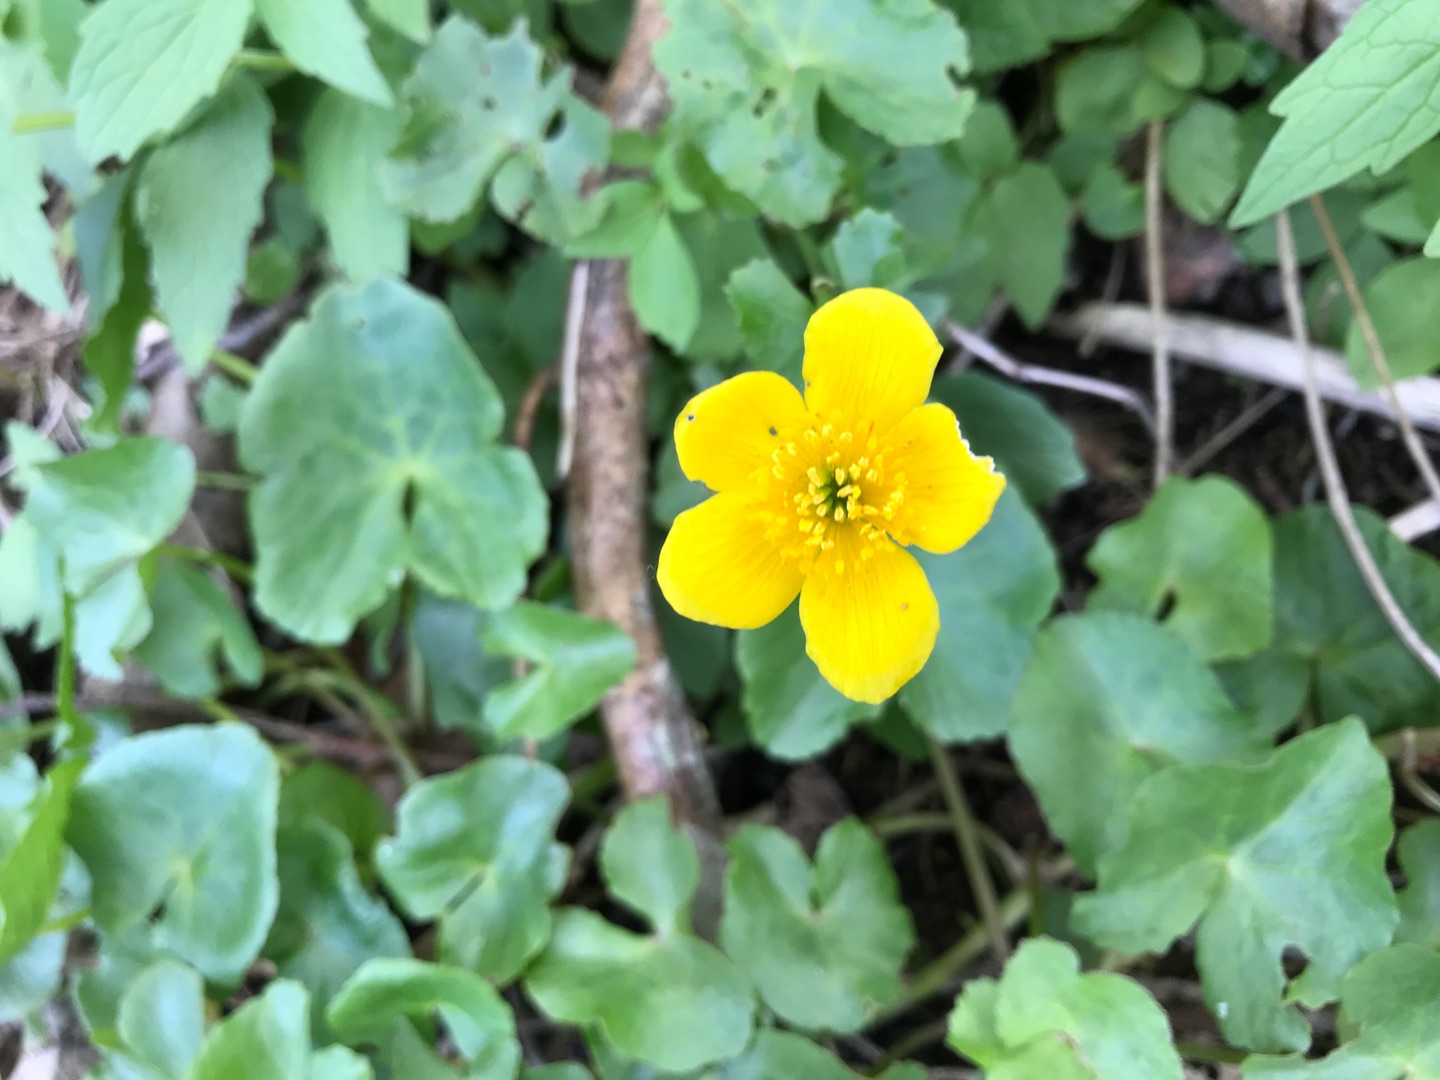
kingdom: Plantae
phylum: Tracheophyta
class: Magnoliopsida
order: Ranunculales
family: Ranunculaceae
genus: Caltha
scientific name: Caltha palustris
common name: Eng-kabbeleje
